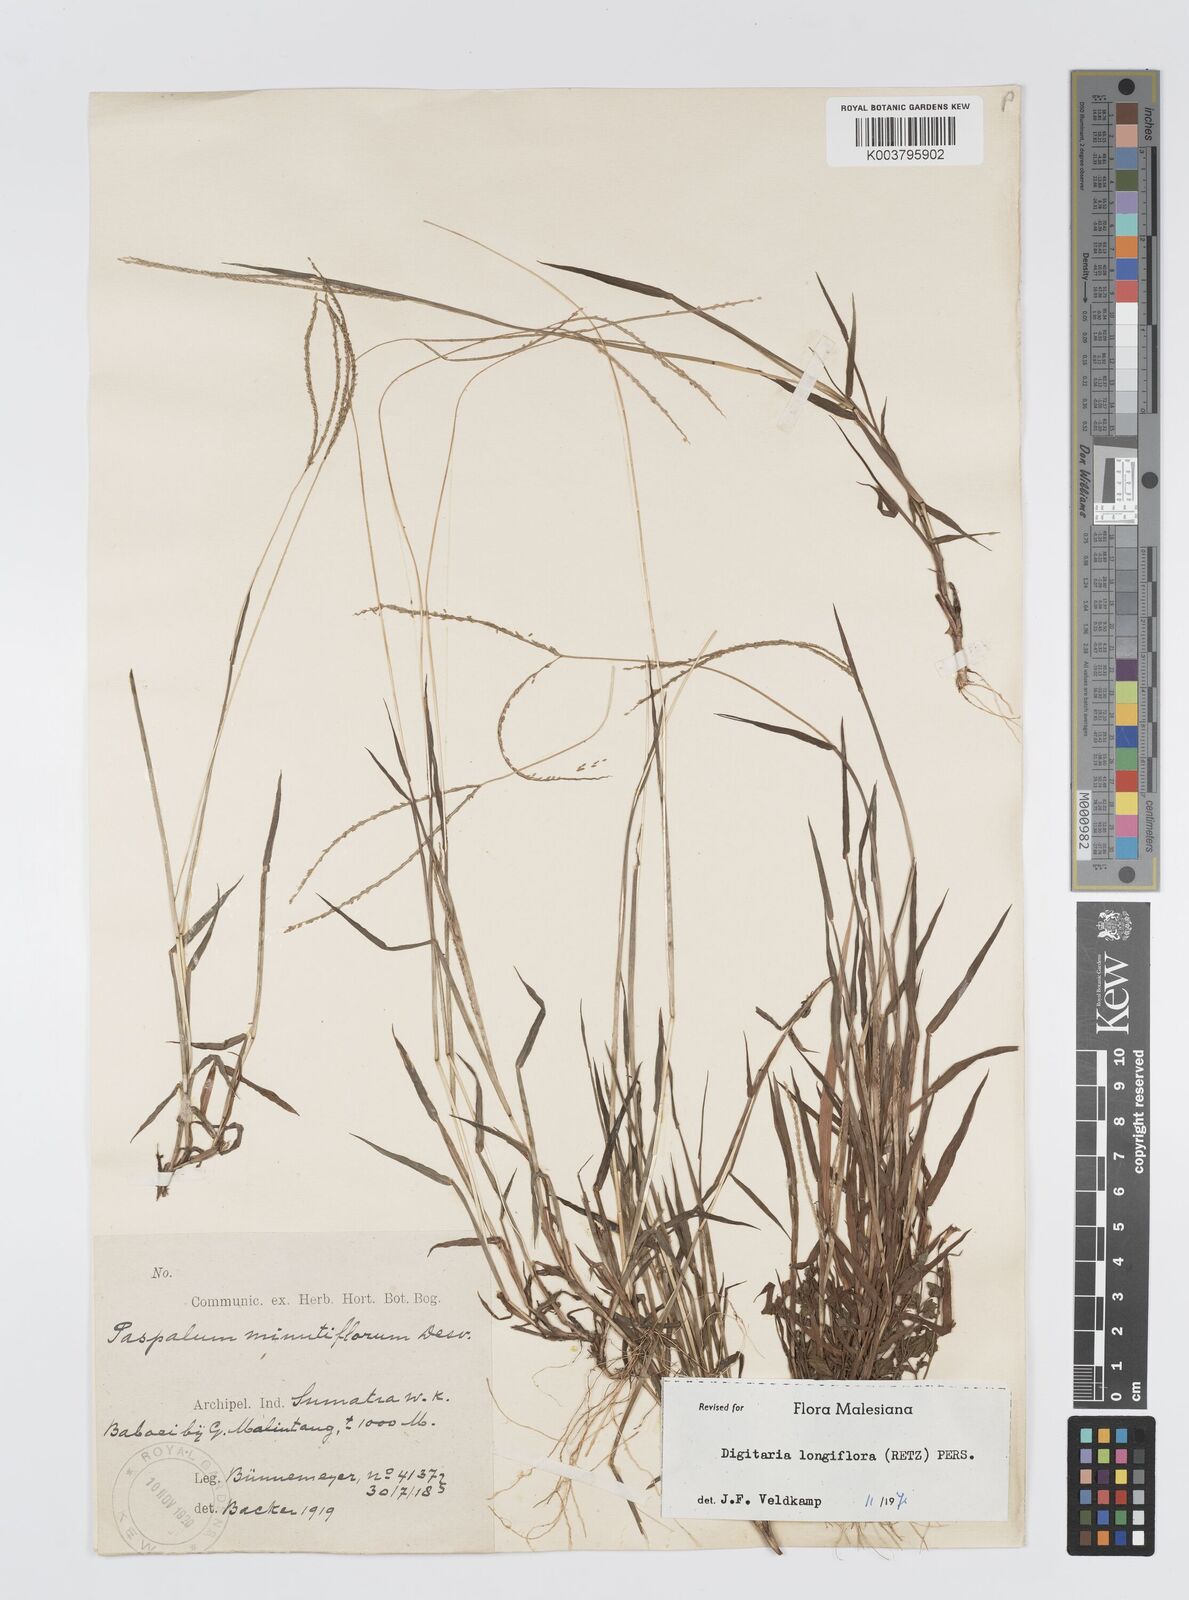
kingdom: Plantae
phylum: Tracheophyta
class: Liliopsida
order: Poales
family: Poaceae
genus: Digitaria
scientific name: Digitaria longiflora
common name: Wire crabgrass
